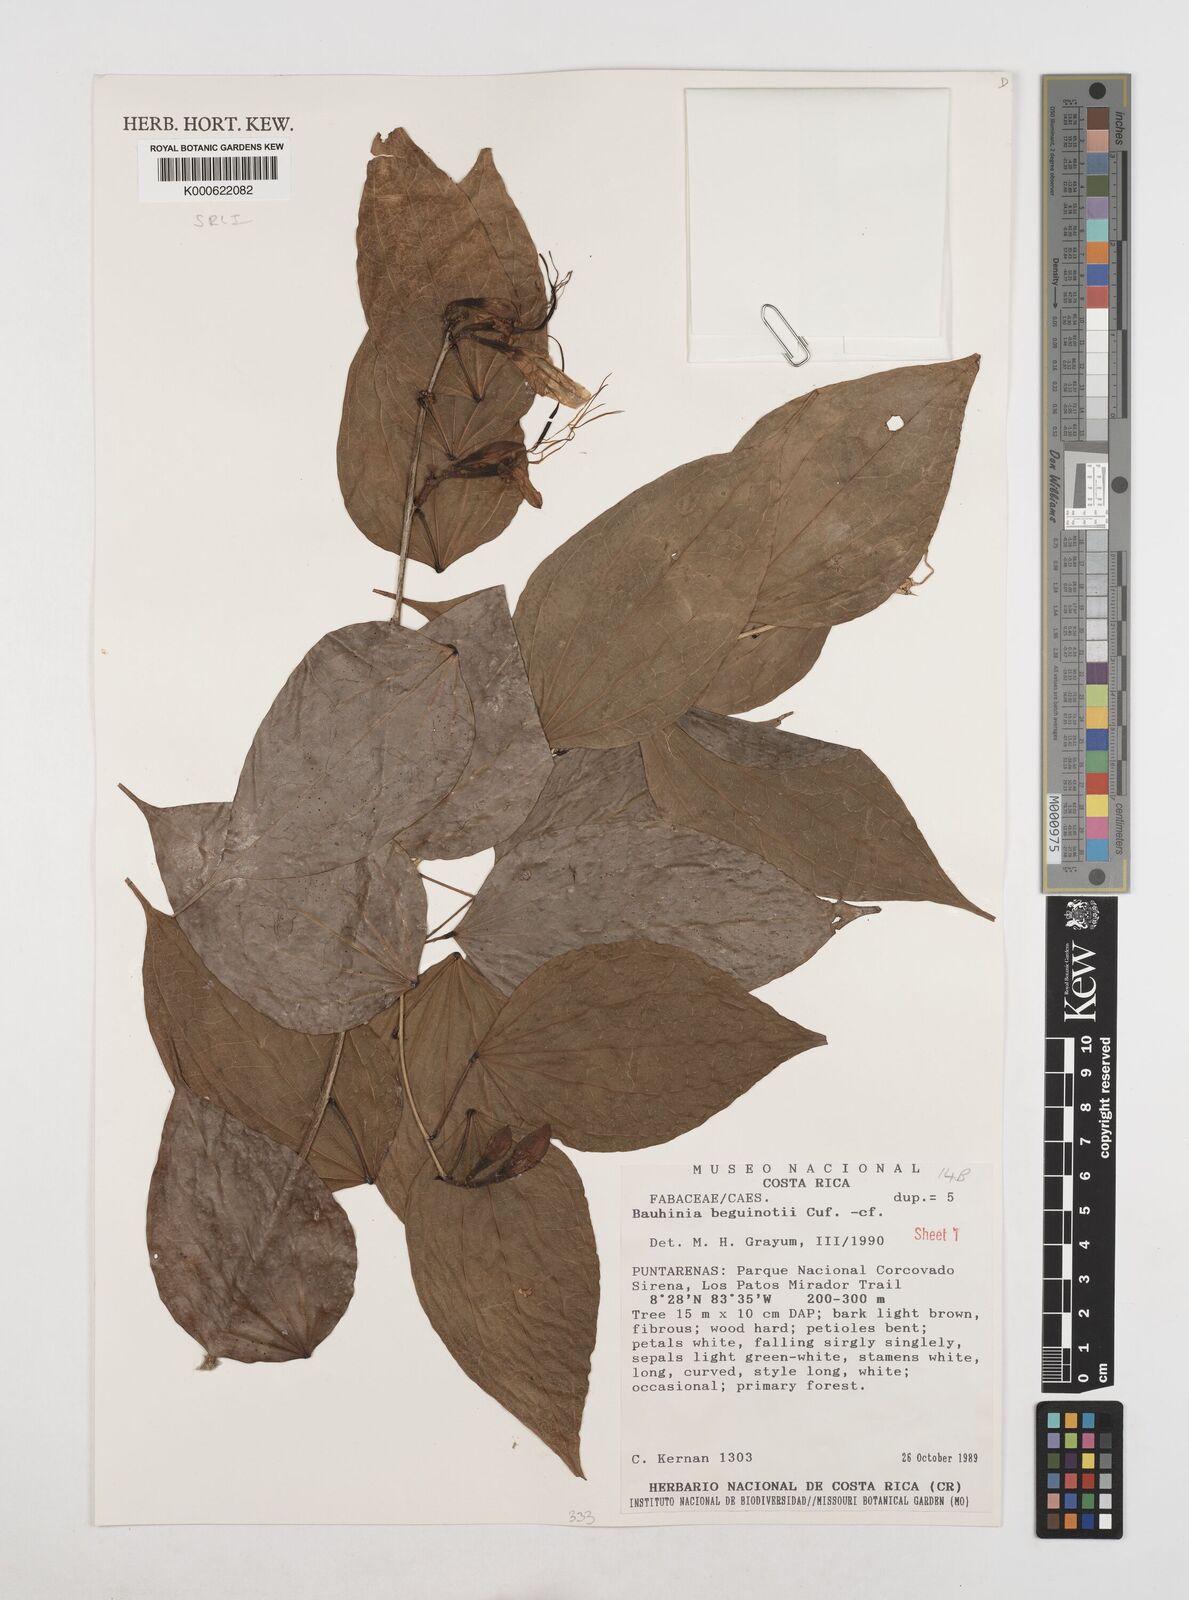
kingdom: Plantae
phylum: Tracheophyta
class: Magnoliopsida
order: Fabales
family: Fabaceae
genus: Bauhinia
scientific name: Bauhinia beguinotii
